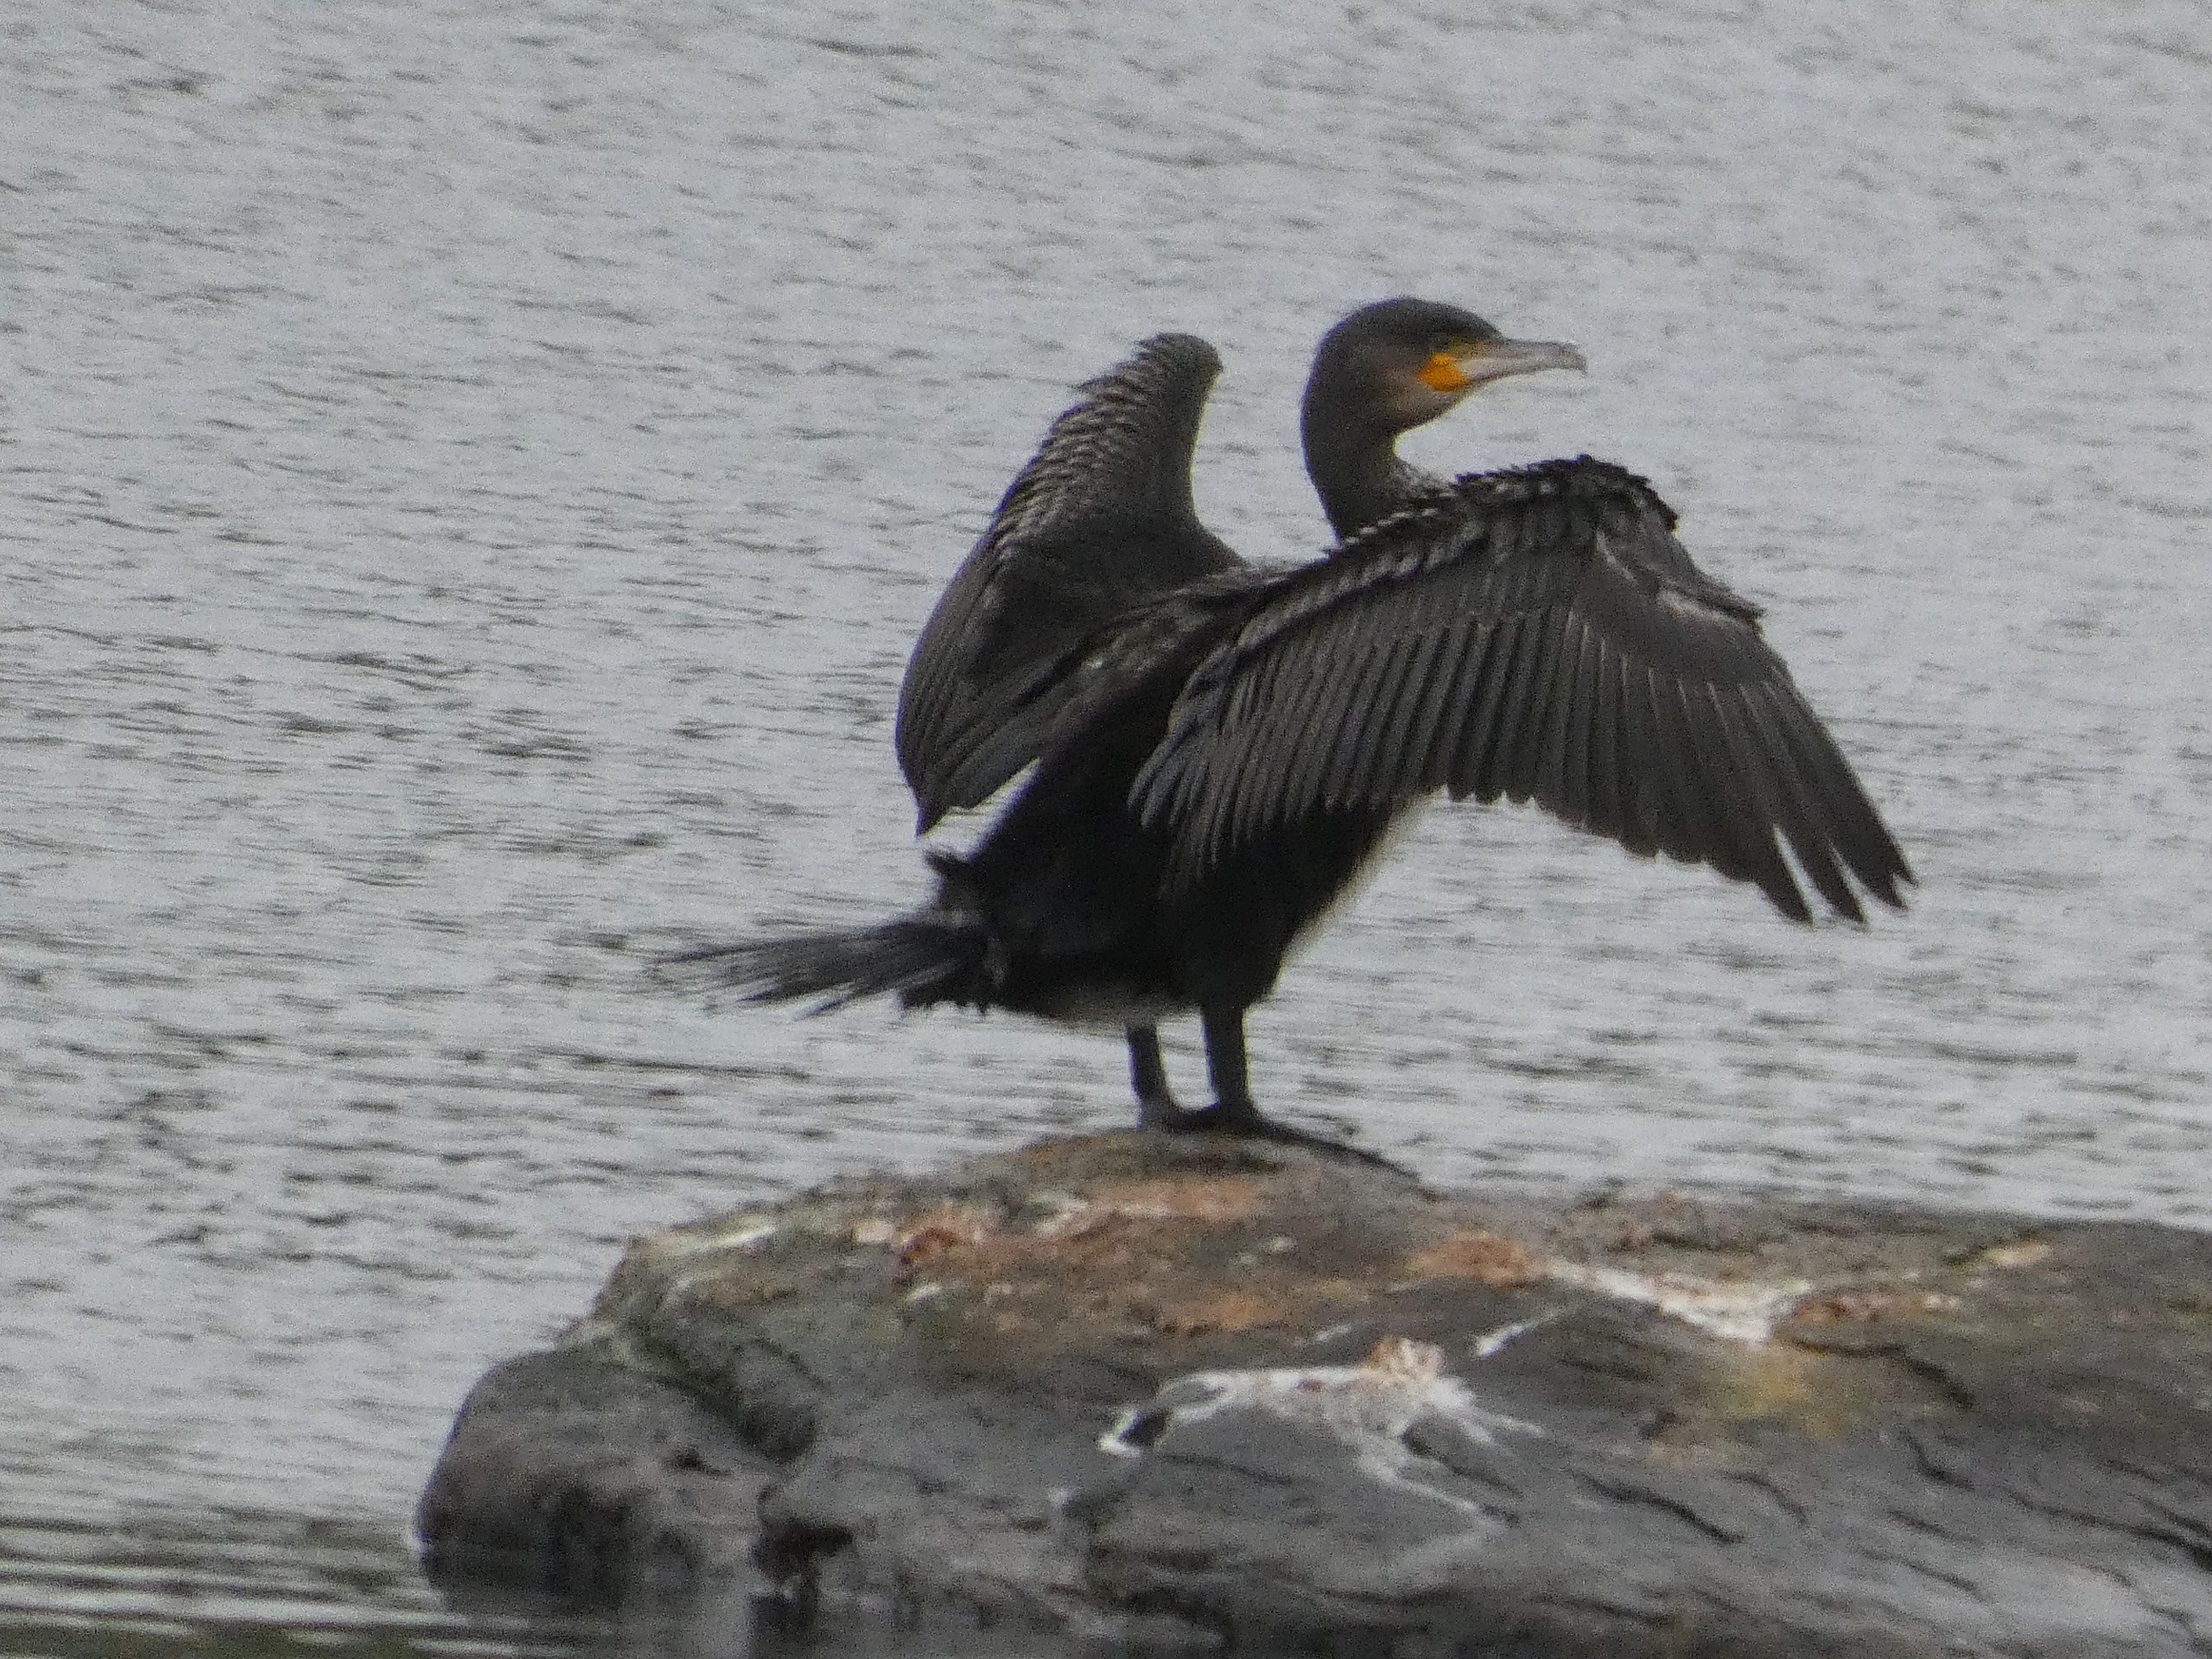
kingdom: Animalia
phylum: Chordata
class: Aves
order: Suliformes
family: Phalacrocoracidae
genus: Phalacrocorax
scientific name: Phalacrocorax carbo
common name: Skarv
